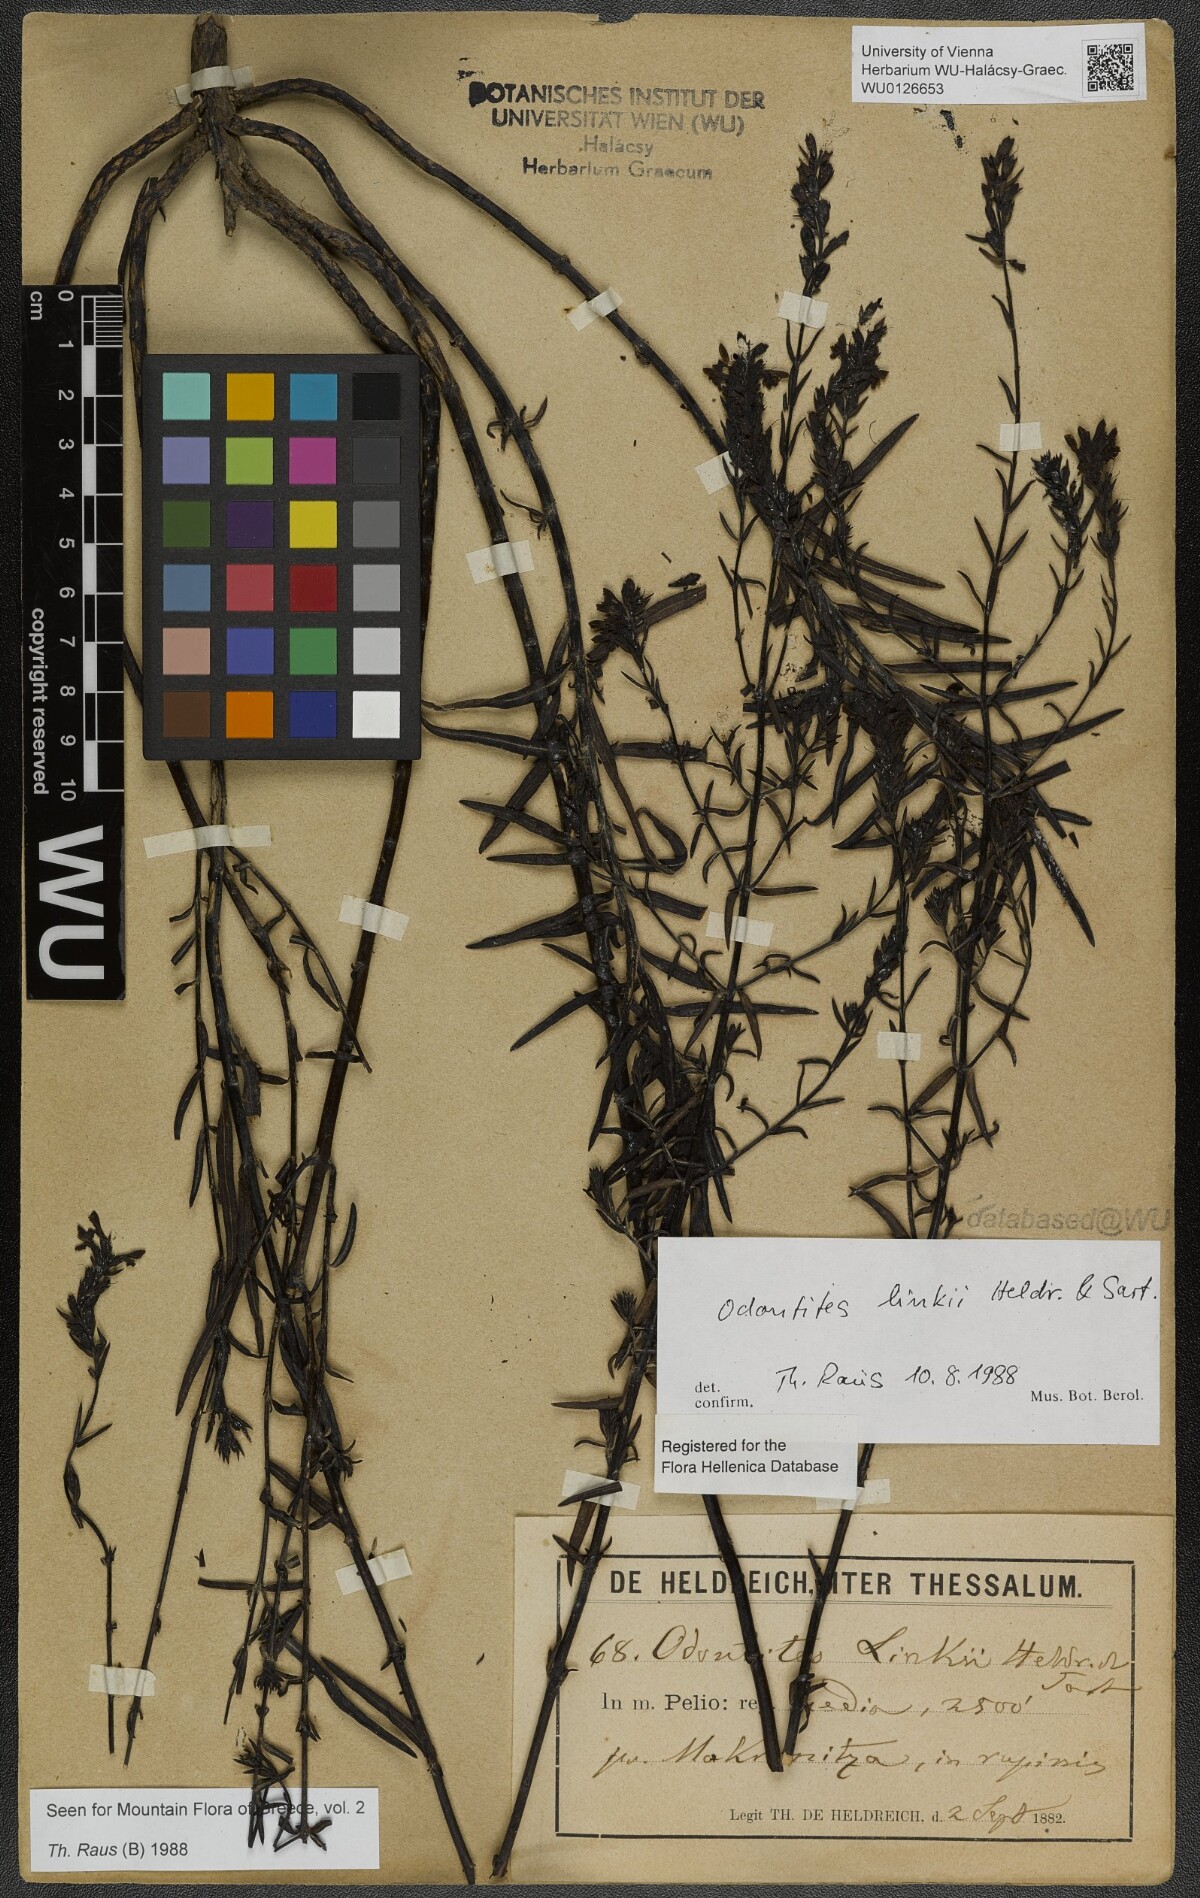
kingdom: Plantae
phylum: Tracheophyta
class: Magnoliopsida
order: Lamiales
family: Scrophulariaceae
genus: Odontites
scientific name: Odontites linkii
